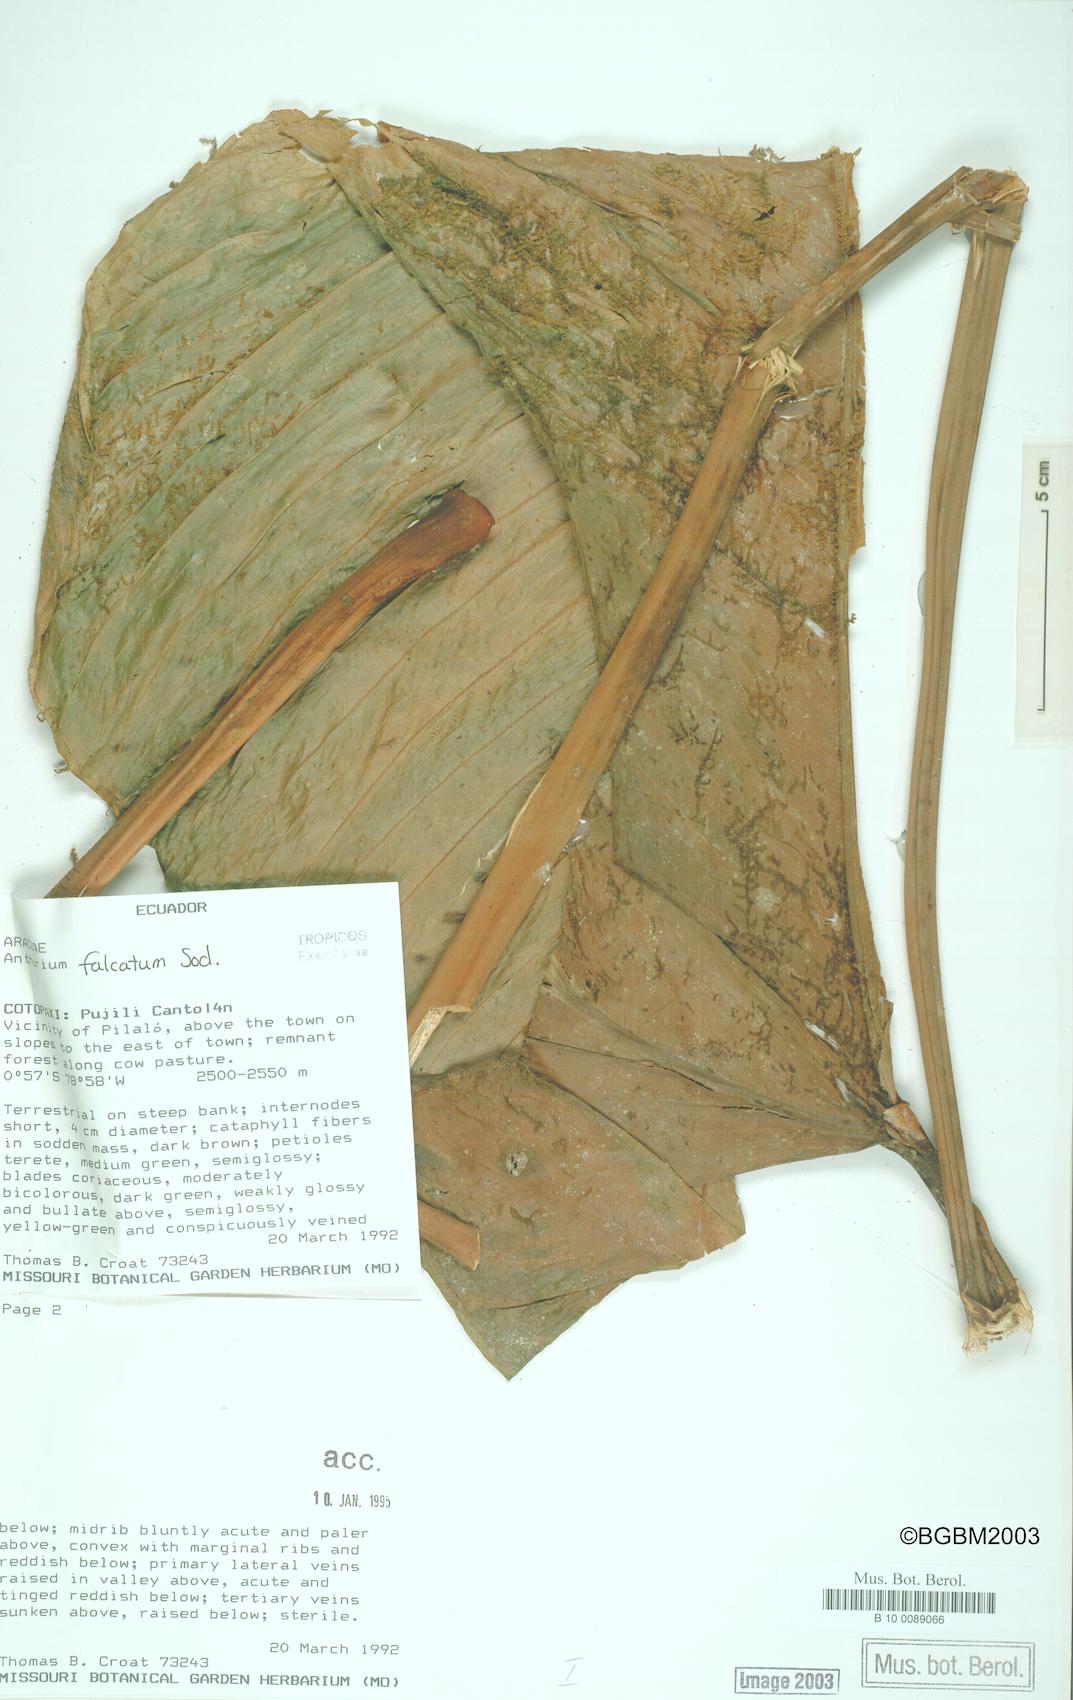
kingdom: Plantae
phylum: Tracheophyta
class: Liliopsida
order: Alismatales
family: Araceae
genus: Anthurium
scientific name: Anthurium rimbachii
